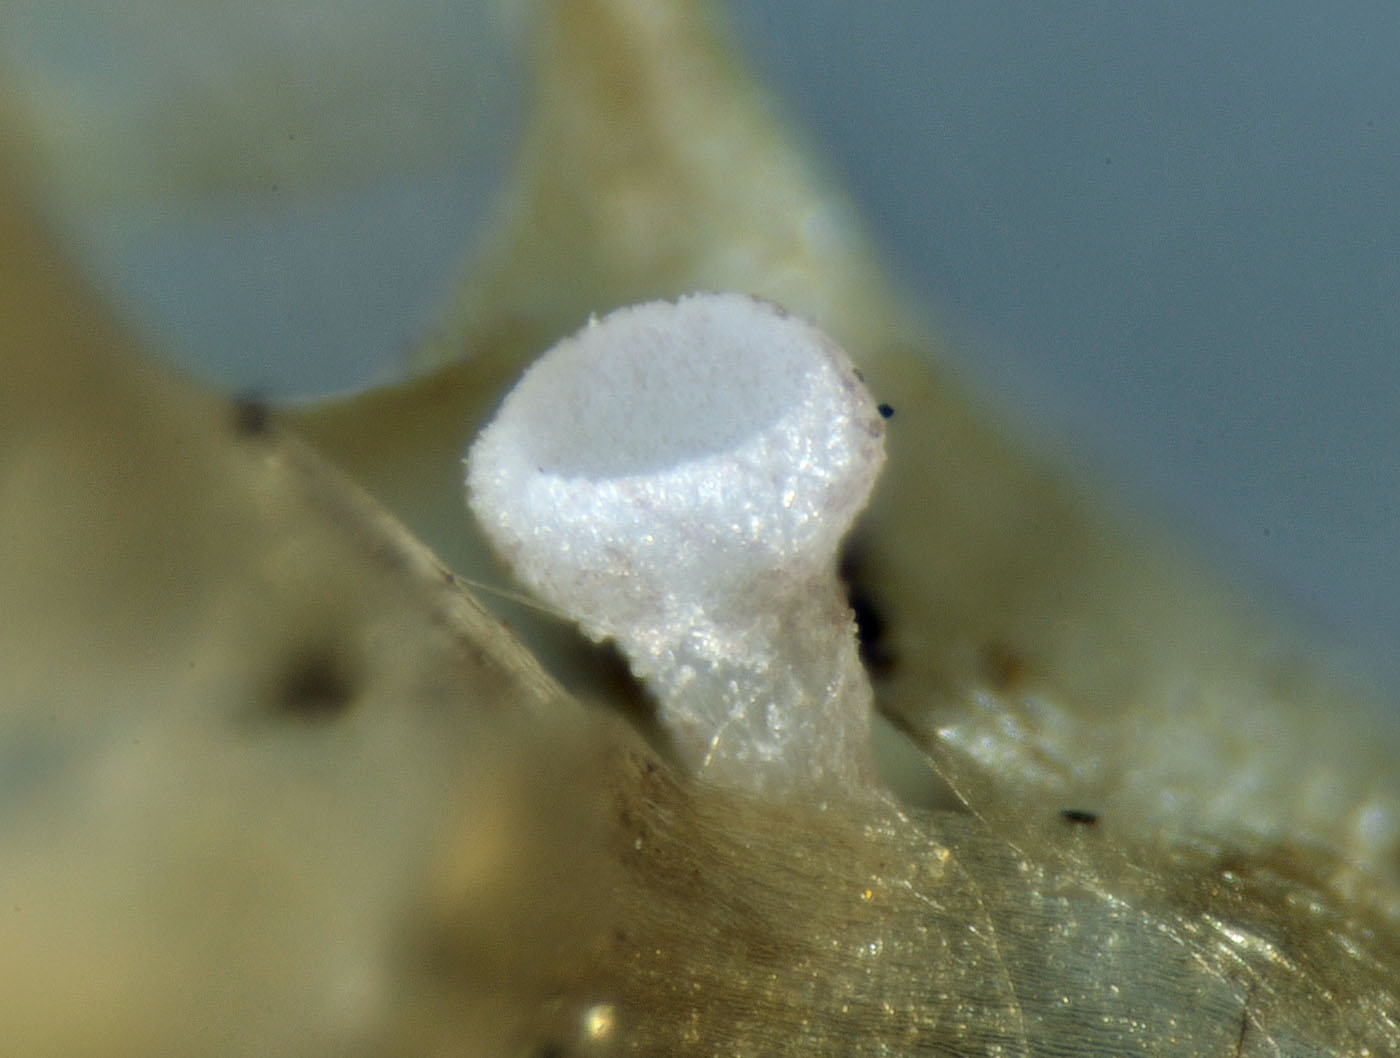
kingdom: Fungi
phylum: Ascomycota
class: Leotiomycetes
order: Helotiales
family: Helotiaceae
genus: Bryoscyphus
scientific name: Bryoscyphus phascoides
